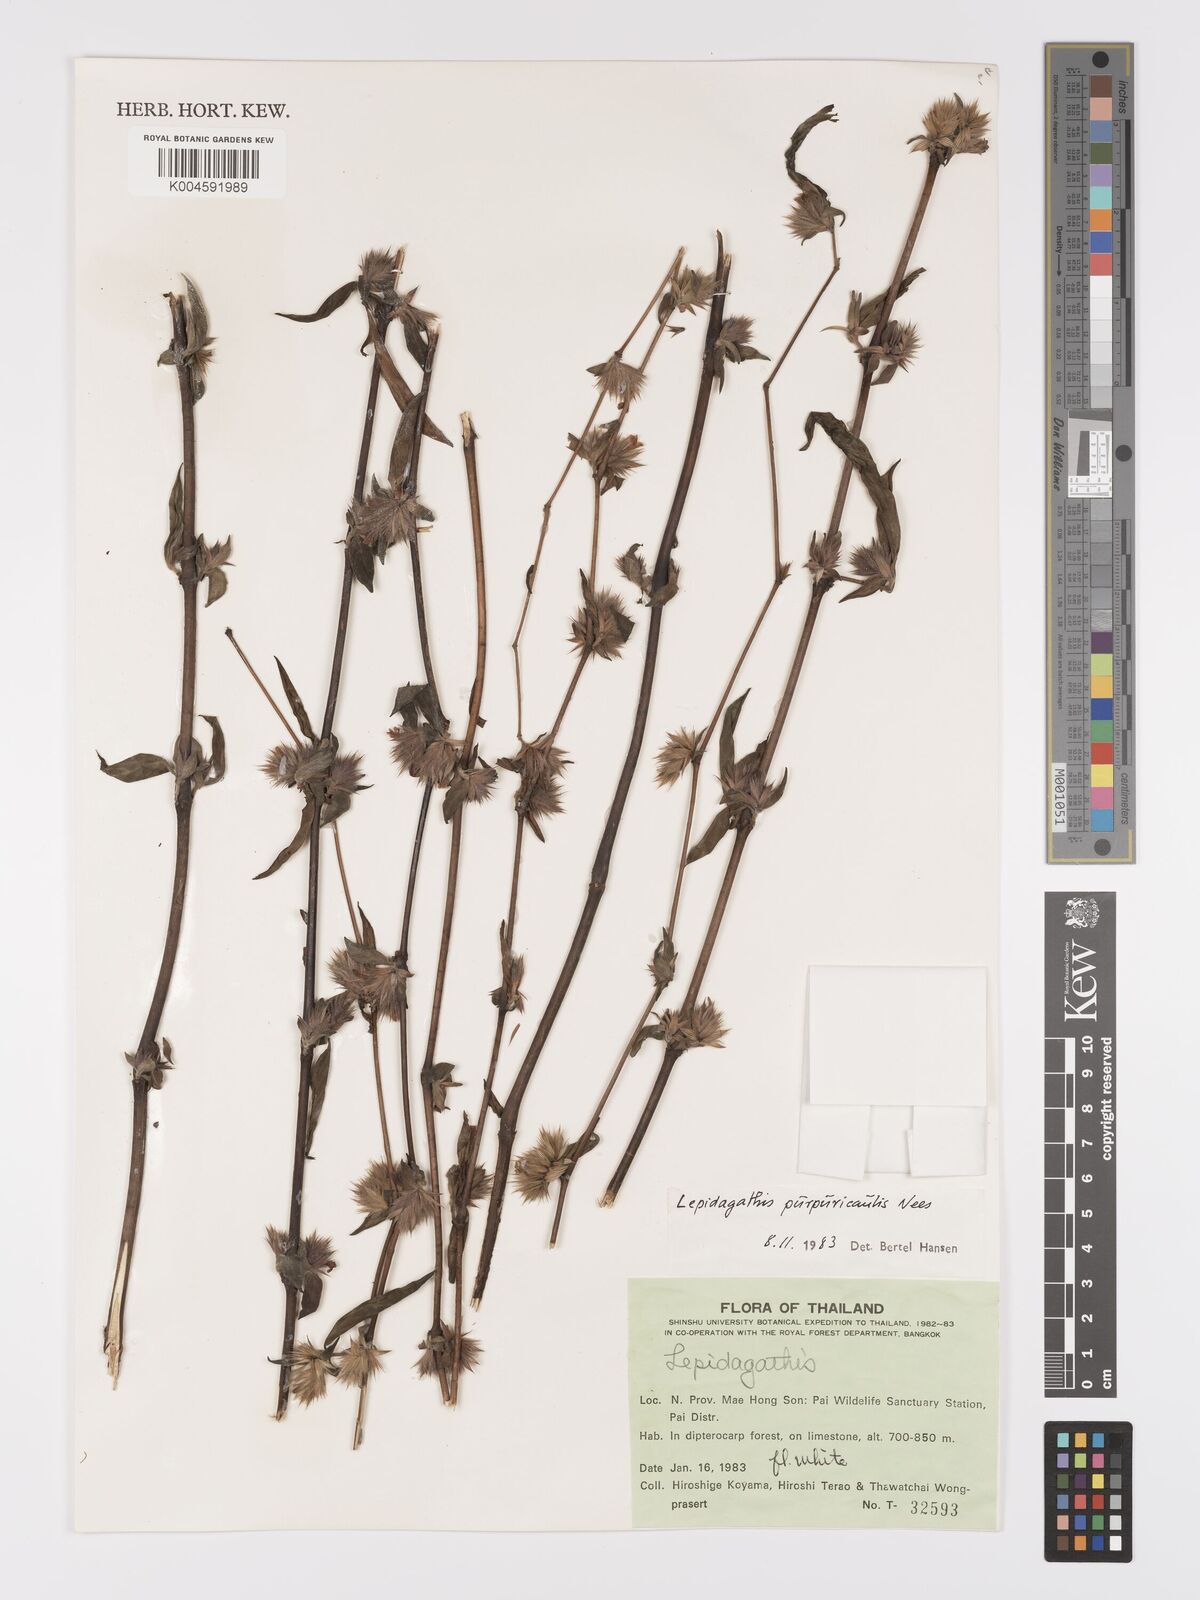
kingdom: Plantae
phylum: Tracheophyta
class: Magnoliopsida
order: Lamiales
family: Acanthaceae
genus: Lepidagathis
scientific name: Lepidagathis purpuricaulis
